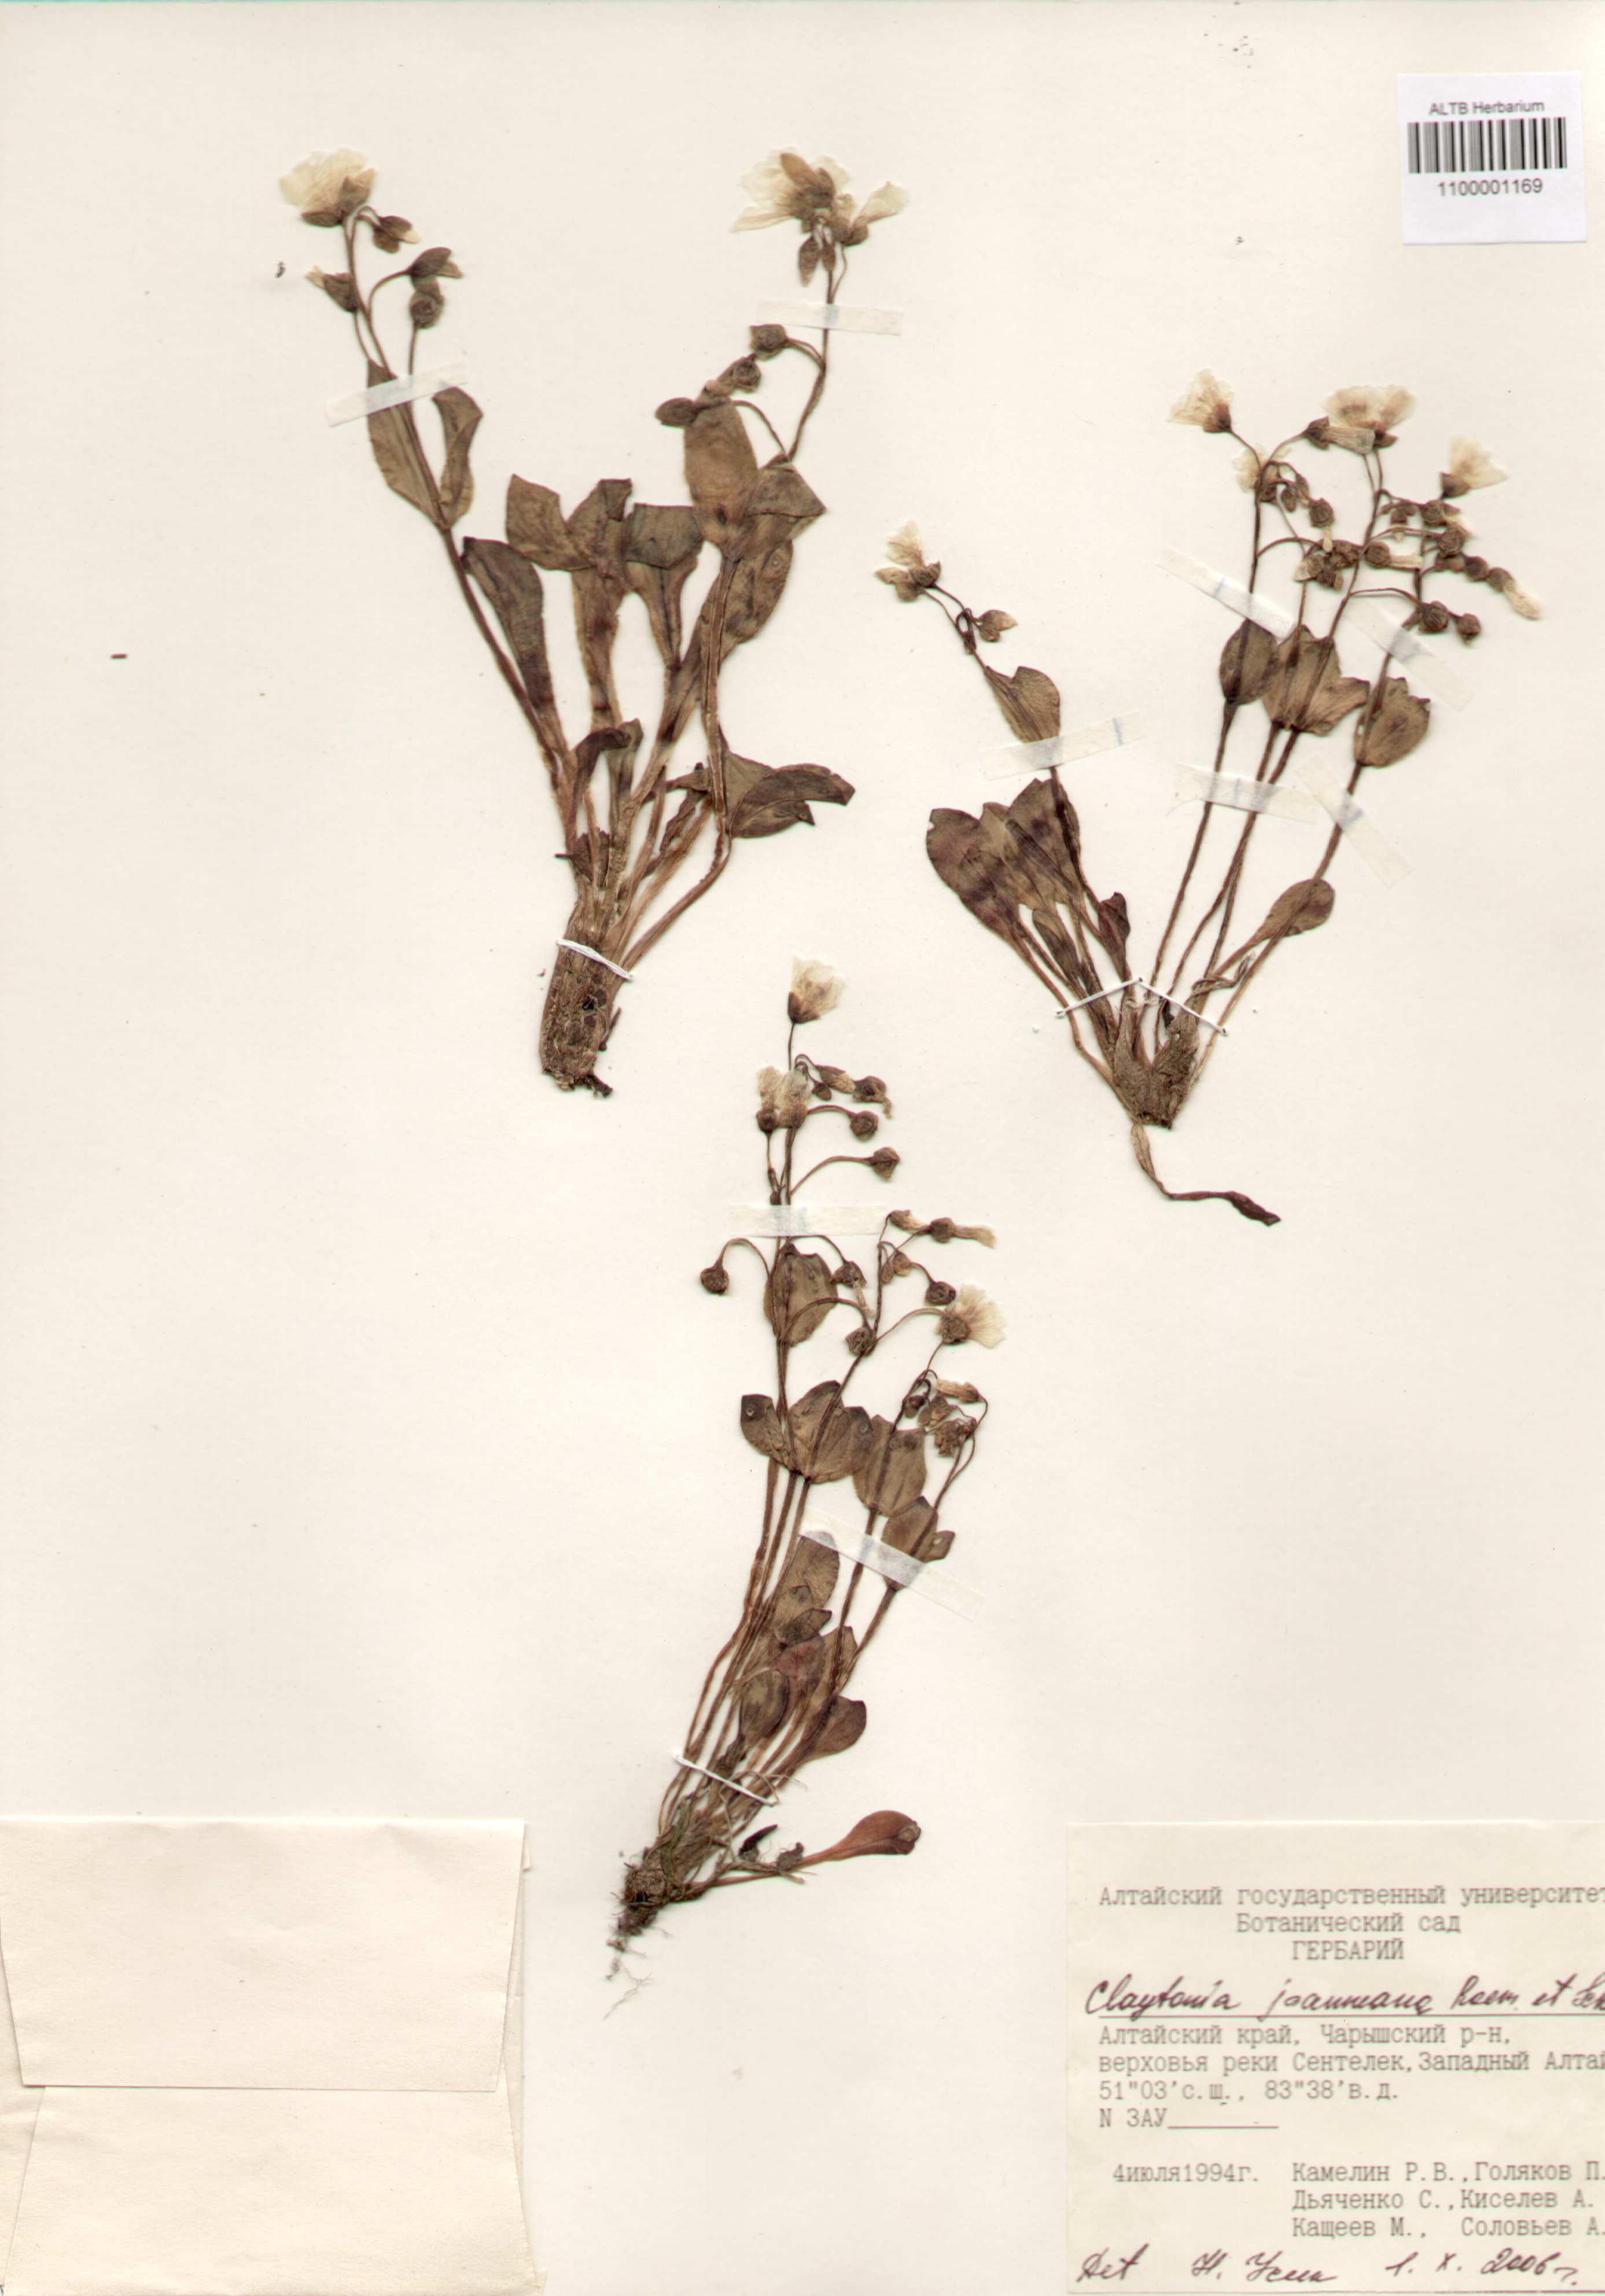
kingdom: Plantae
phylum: Tracheophyta
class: Magnoliopsida
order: Caryophyllales
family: Montiaceae
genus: Claytonia
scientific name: Claytonia joanneana
